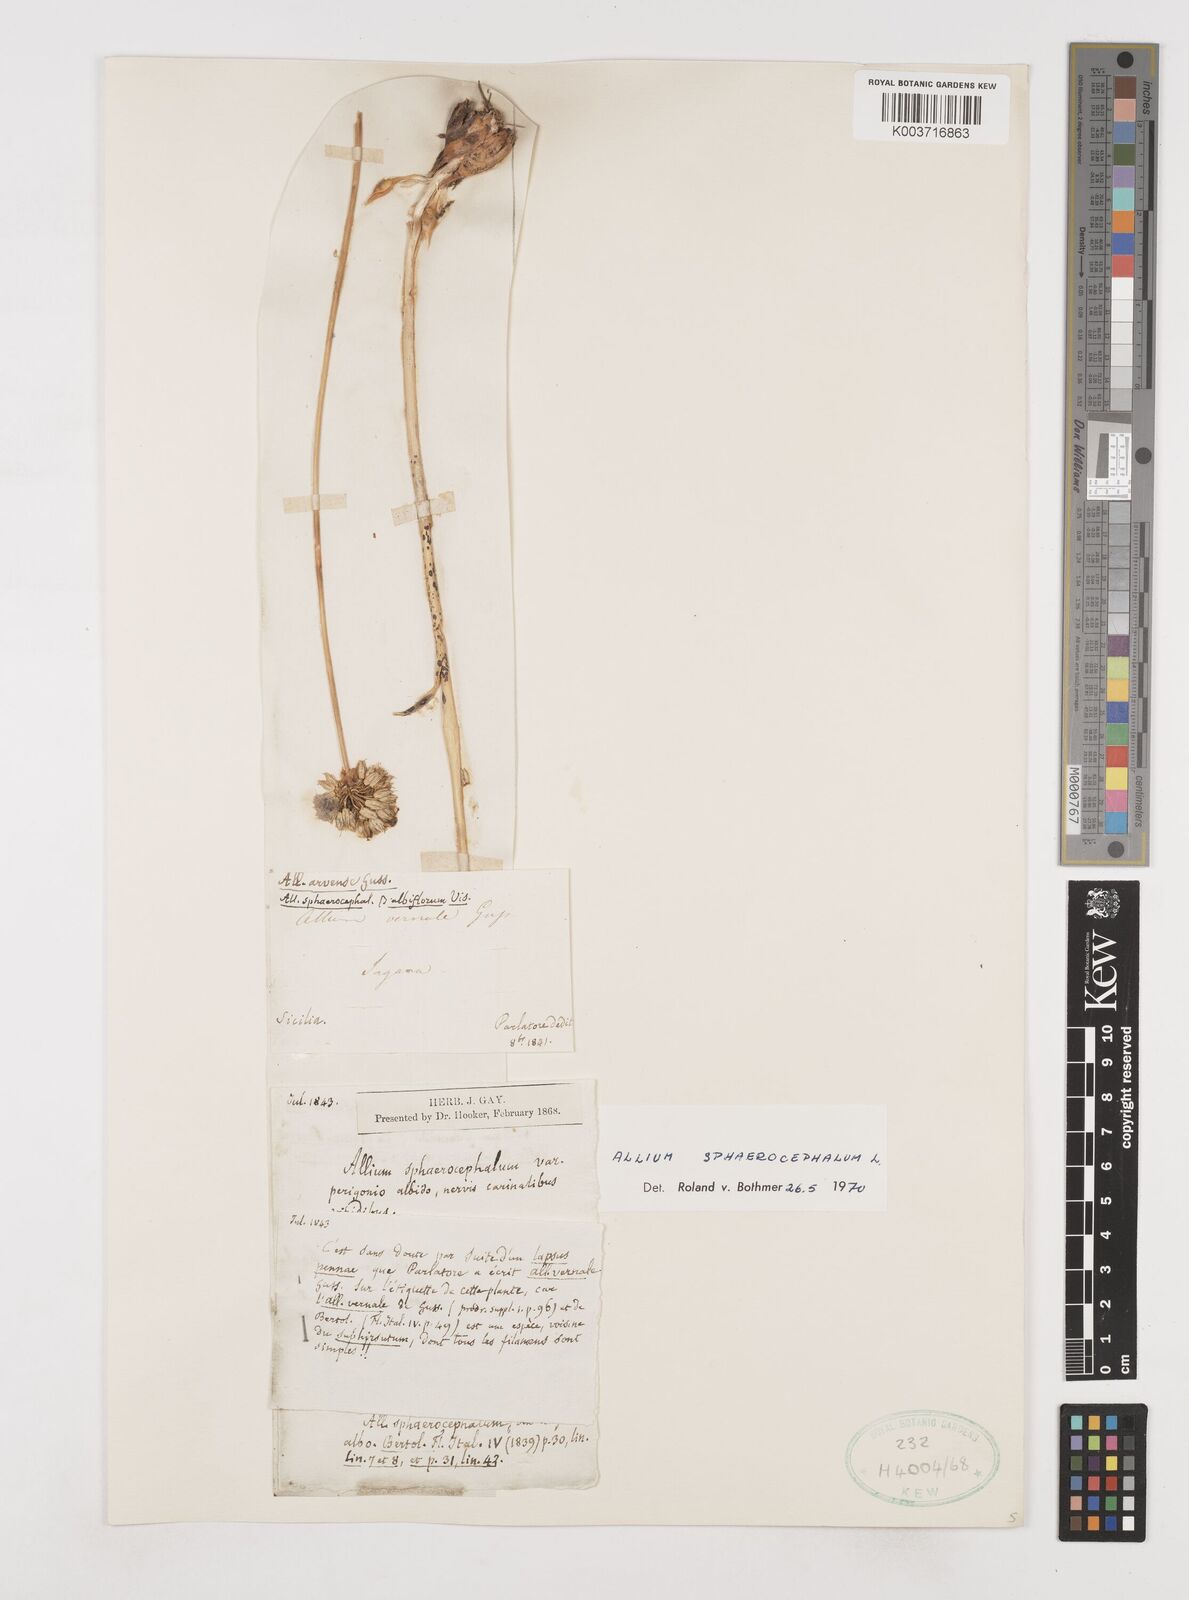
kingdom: Plantae
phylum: Tracheophyta
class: Liliopsida
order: Asparagales
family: Amaryllidaceae
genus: Allium
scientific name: Allium sphaerocephalon
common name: Round-headed leek
